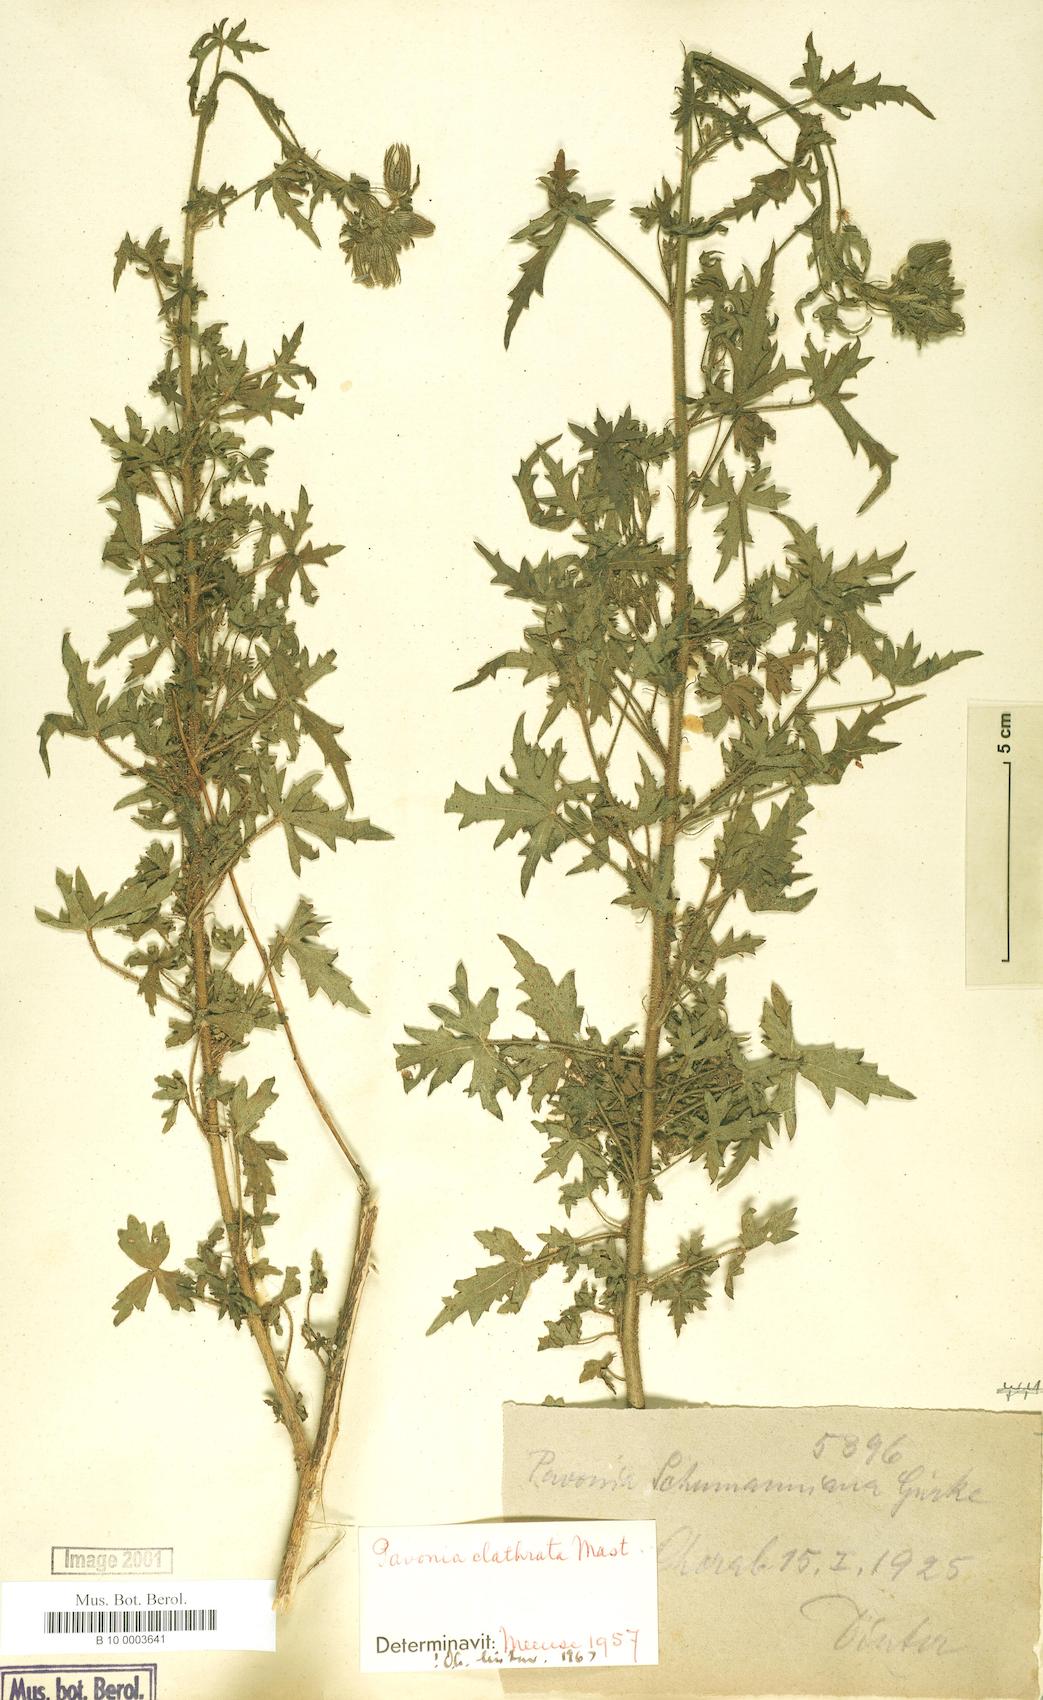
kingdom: Plantae
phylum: Tracheophyta
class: Magnoliopsida
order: Malvales
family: Malvaceae
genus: Pavonia
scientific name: Pavonia clathrata
